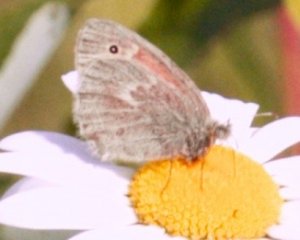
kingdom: Animalia
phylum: Arthropoda
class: Insecta
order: Lepidoptera
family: Nymphalidae
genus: Coenonympha
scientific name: Coenonympha tullia
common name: Large Heath
